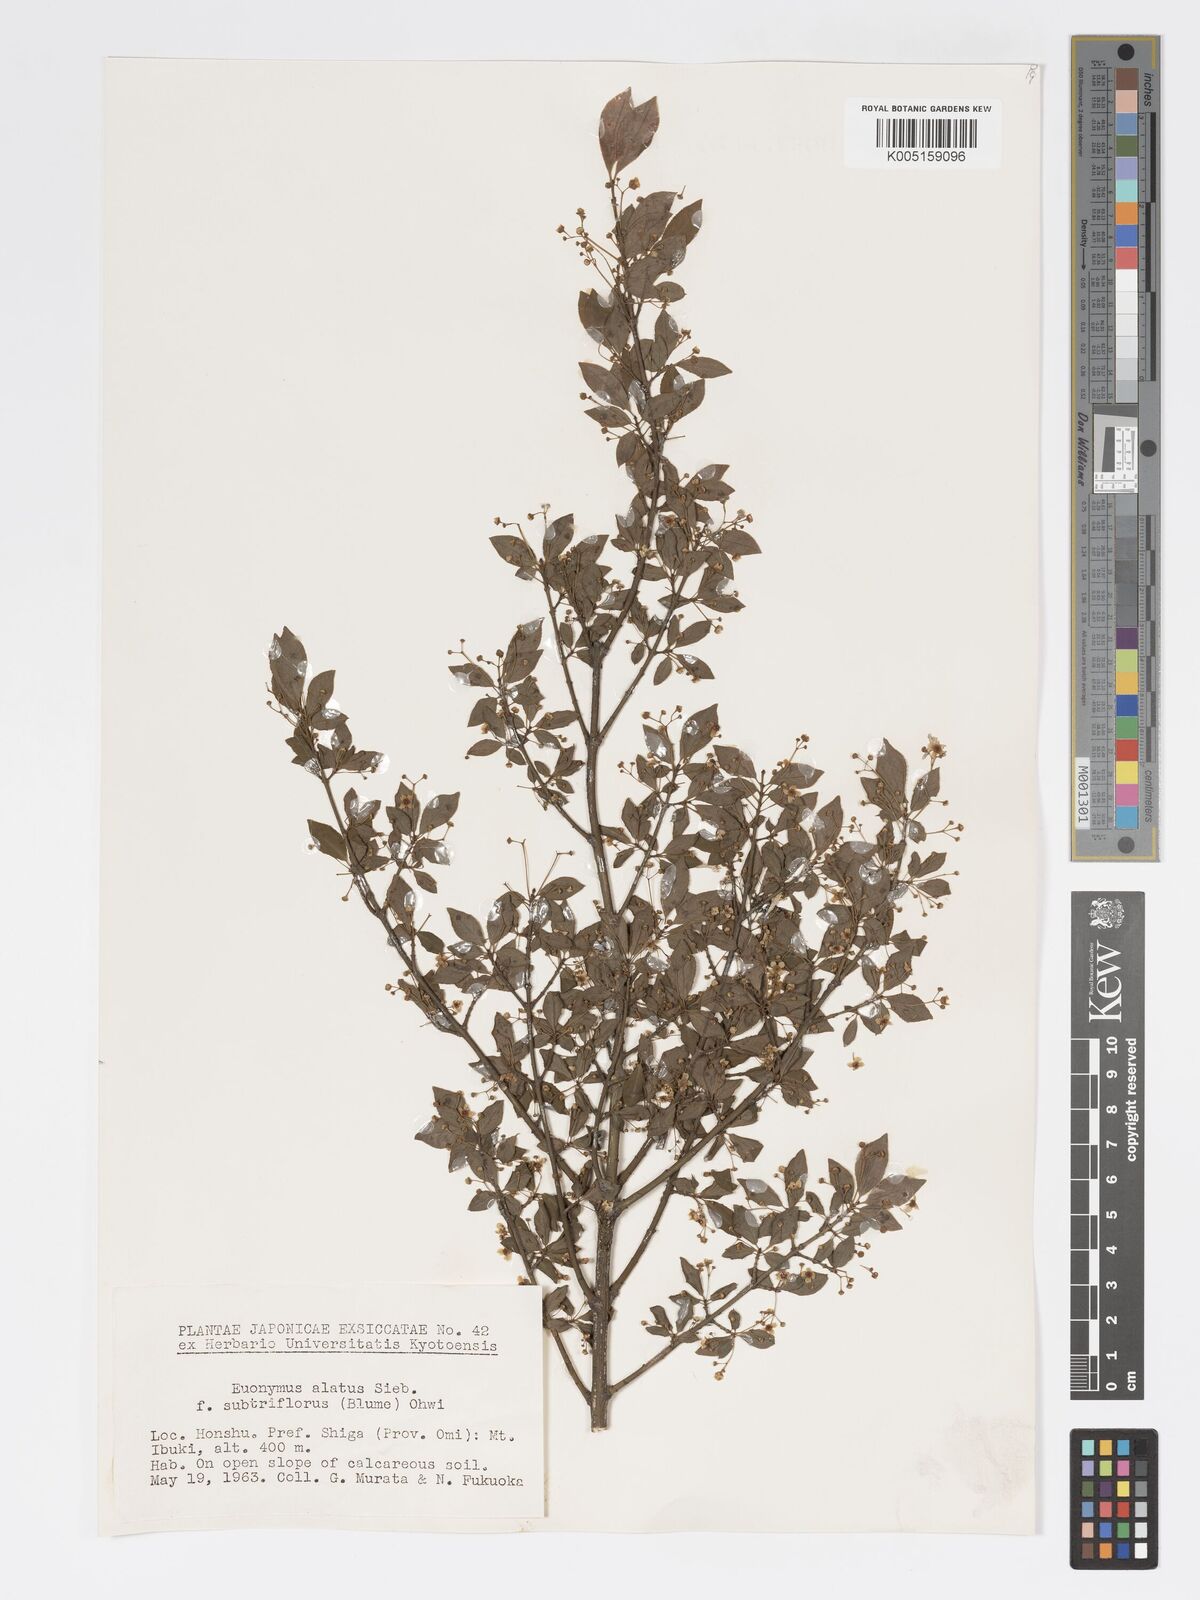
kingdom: Plantae
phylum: Tracheophyta
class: Magnoliopsida
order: Celastrales
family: Celastraceae
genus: Euonymus
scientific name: Euonymus
